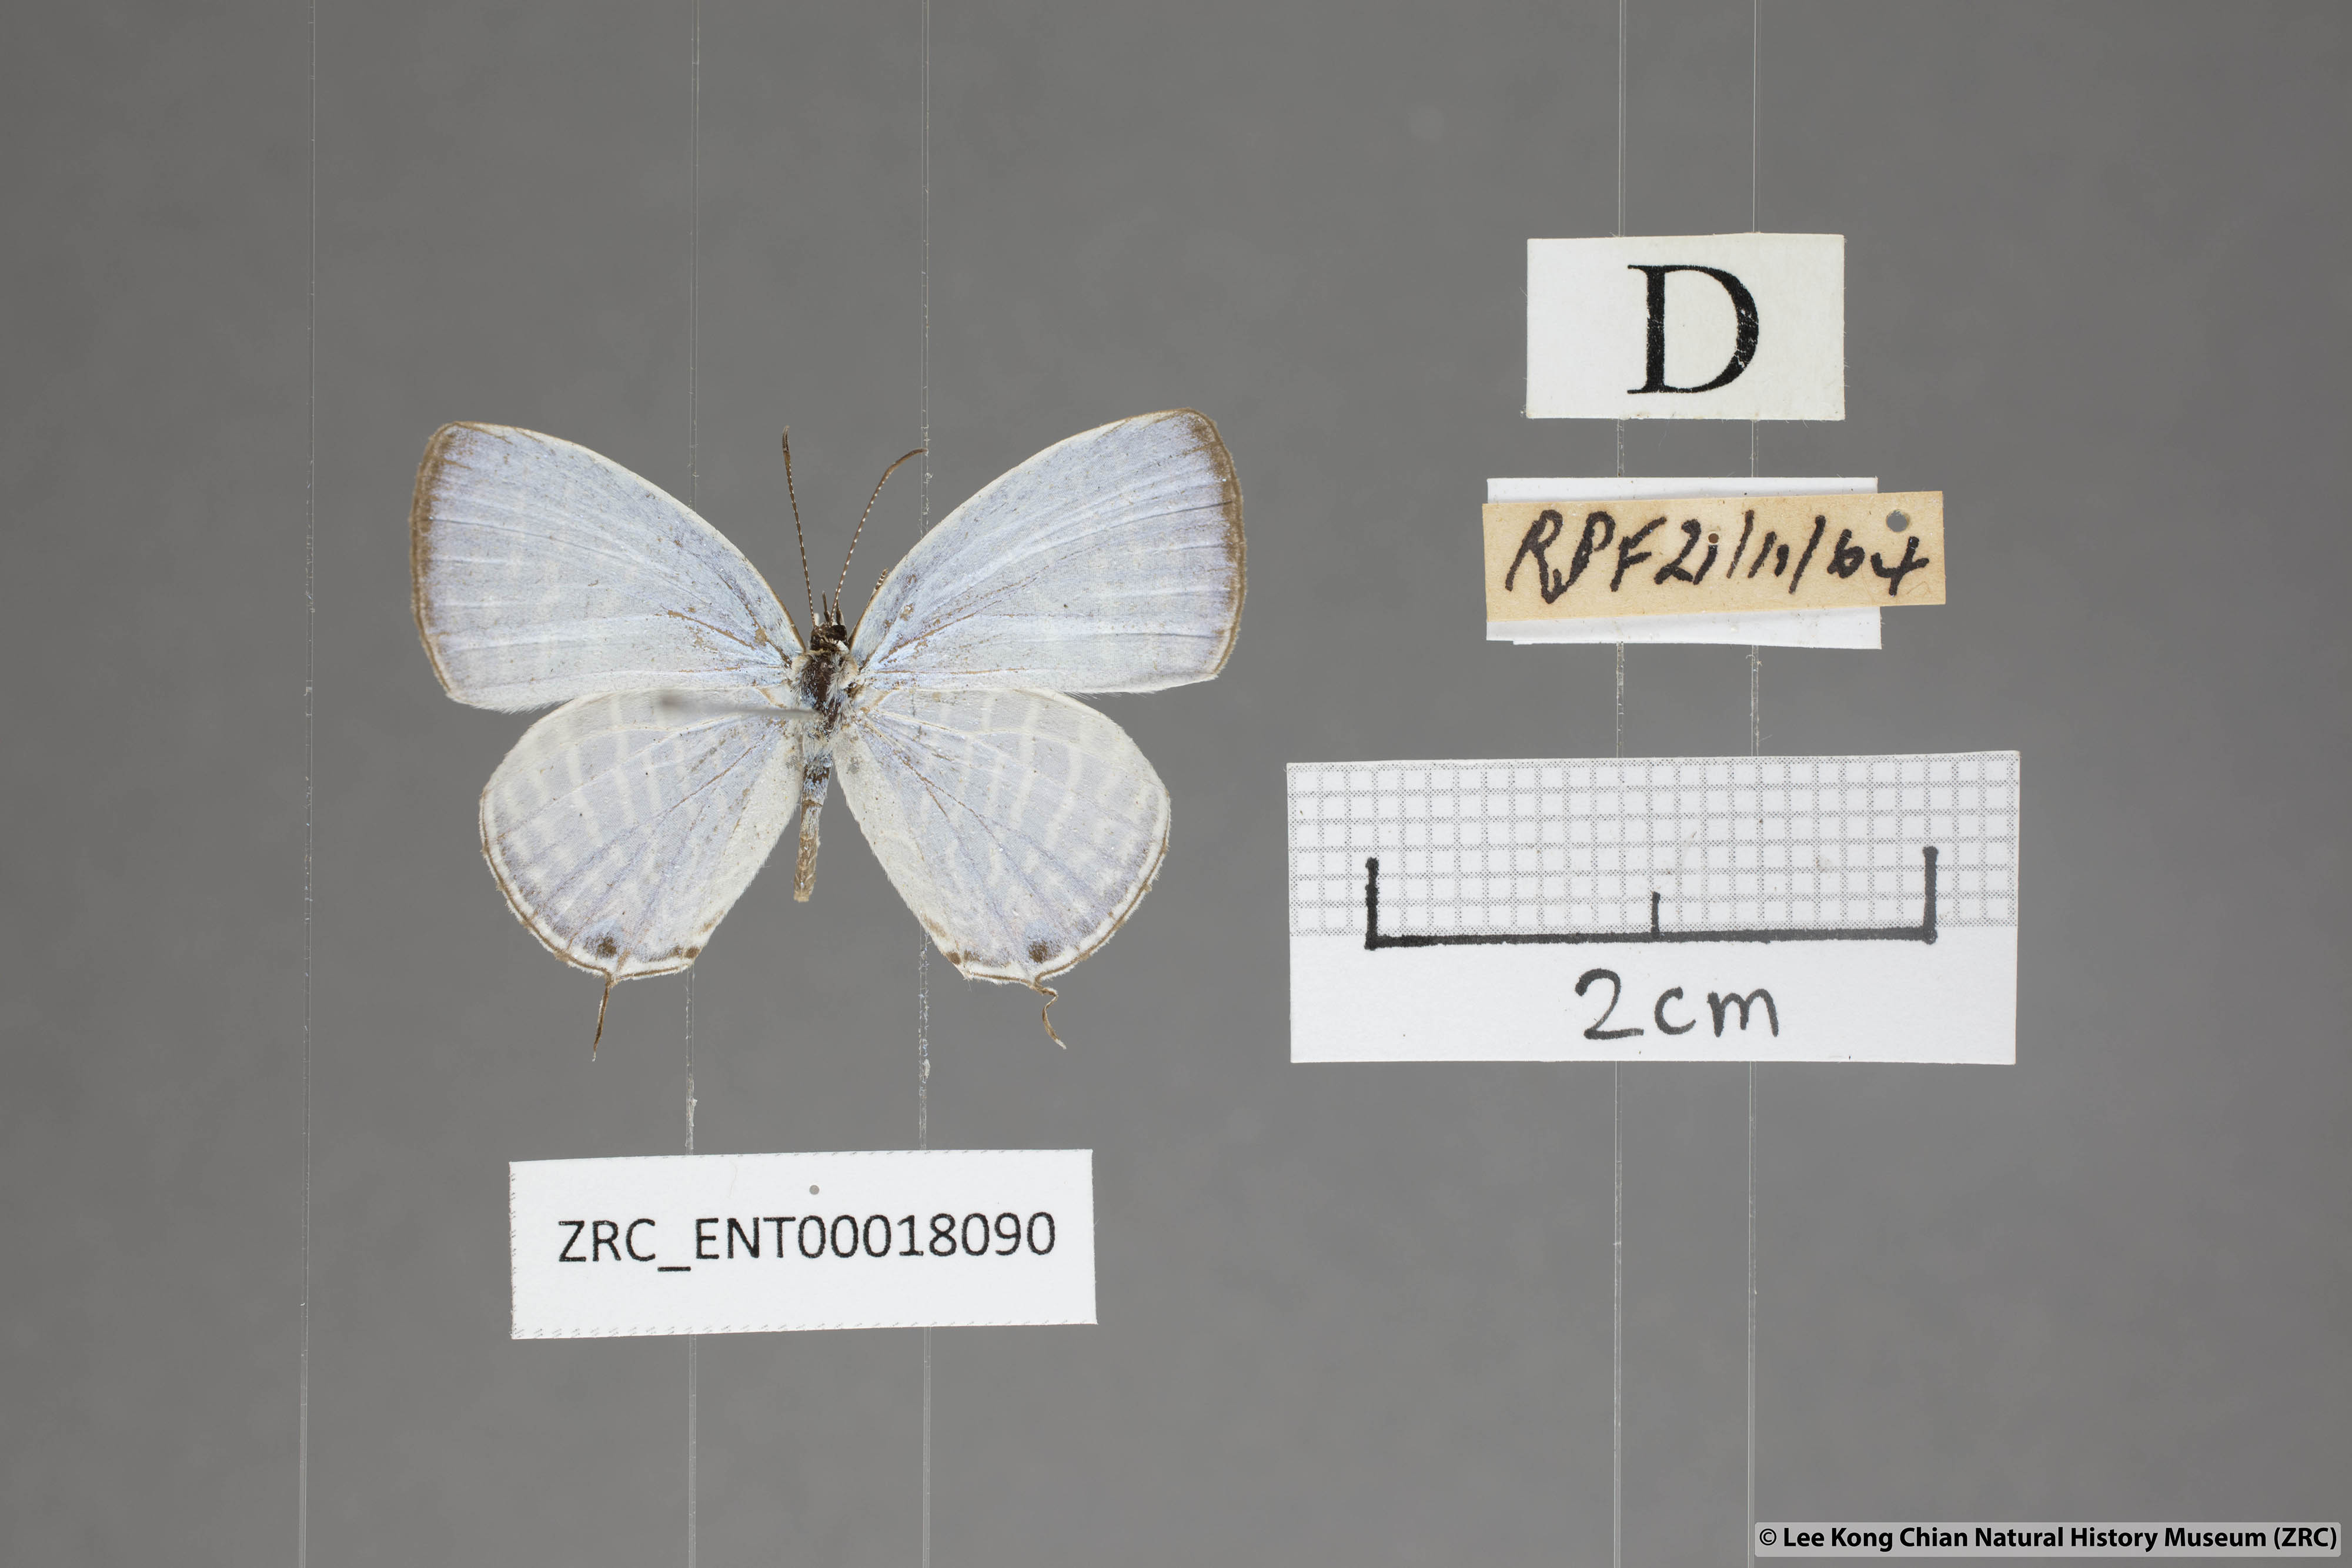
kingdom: Animalia
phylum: Arthropoda
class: Insecta
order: Lepidoptera
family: Lycaenidae
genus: Jamides
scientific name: Jamides celeno
